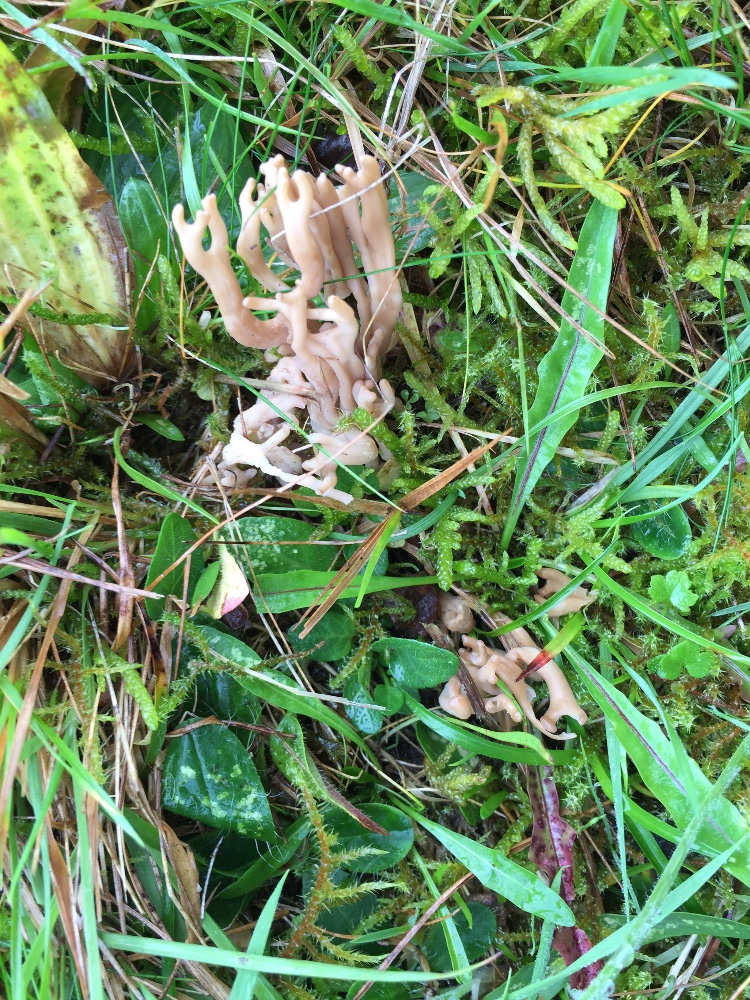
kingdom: Fungi
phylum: Basidiomycota
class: Agaricomycetes
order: Agaricales
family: Clavariaceae
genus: Clavulinopsis
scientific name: Clavulinopsis umbrinella
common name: gulgrå køllesvamp
